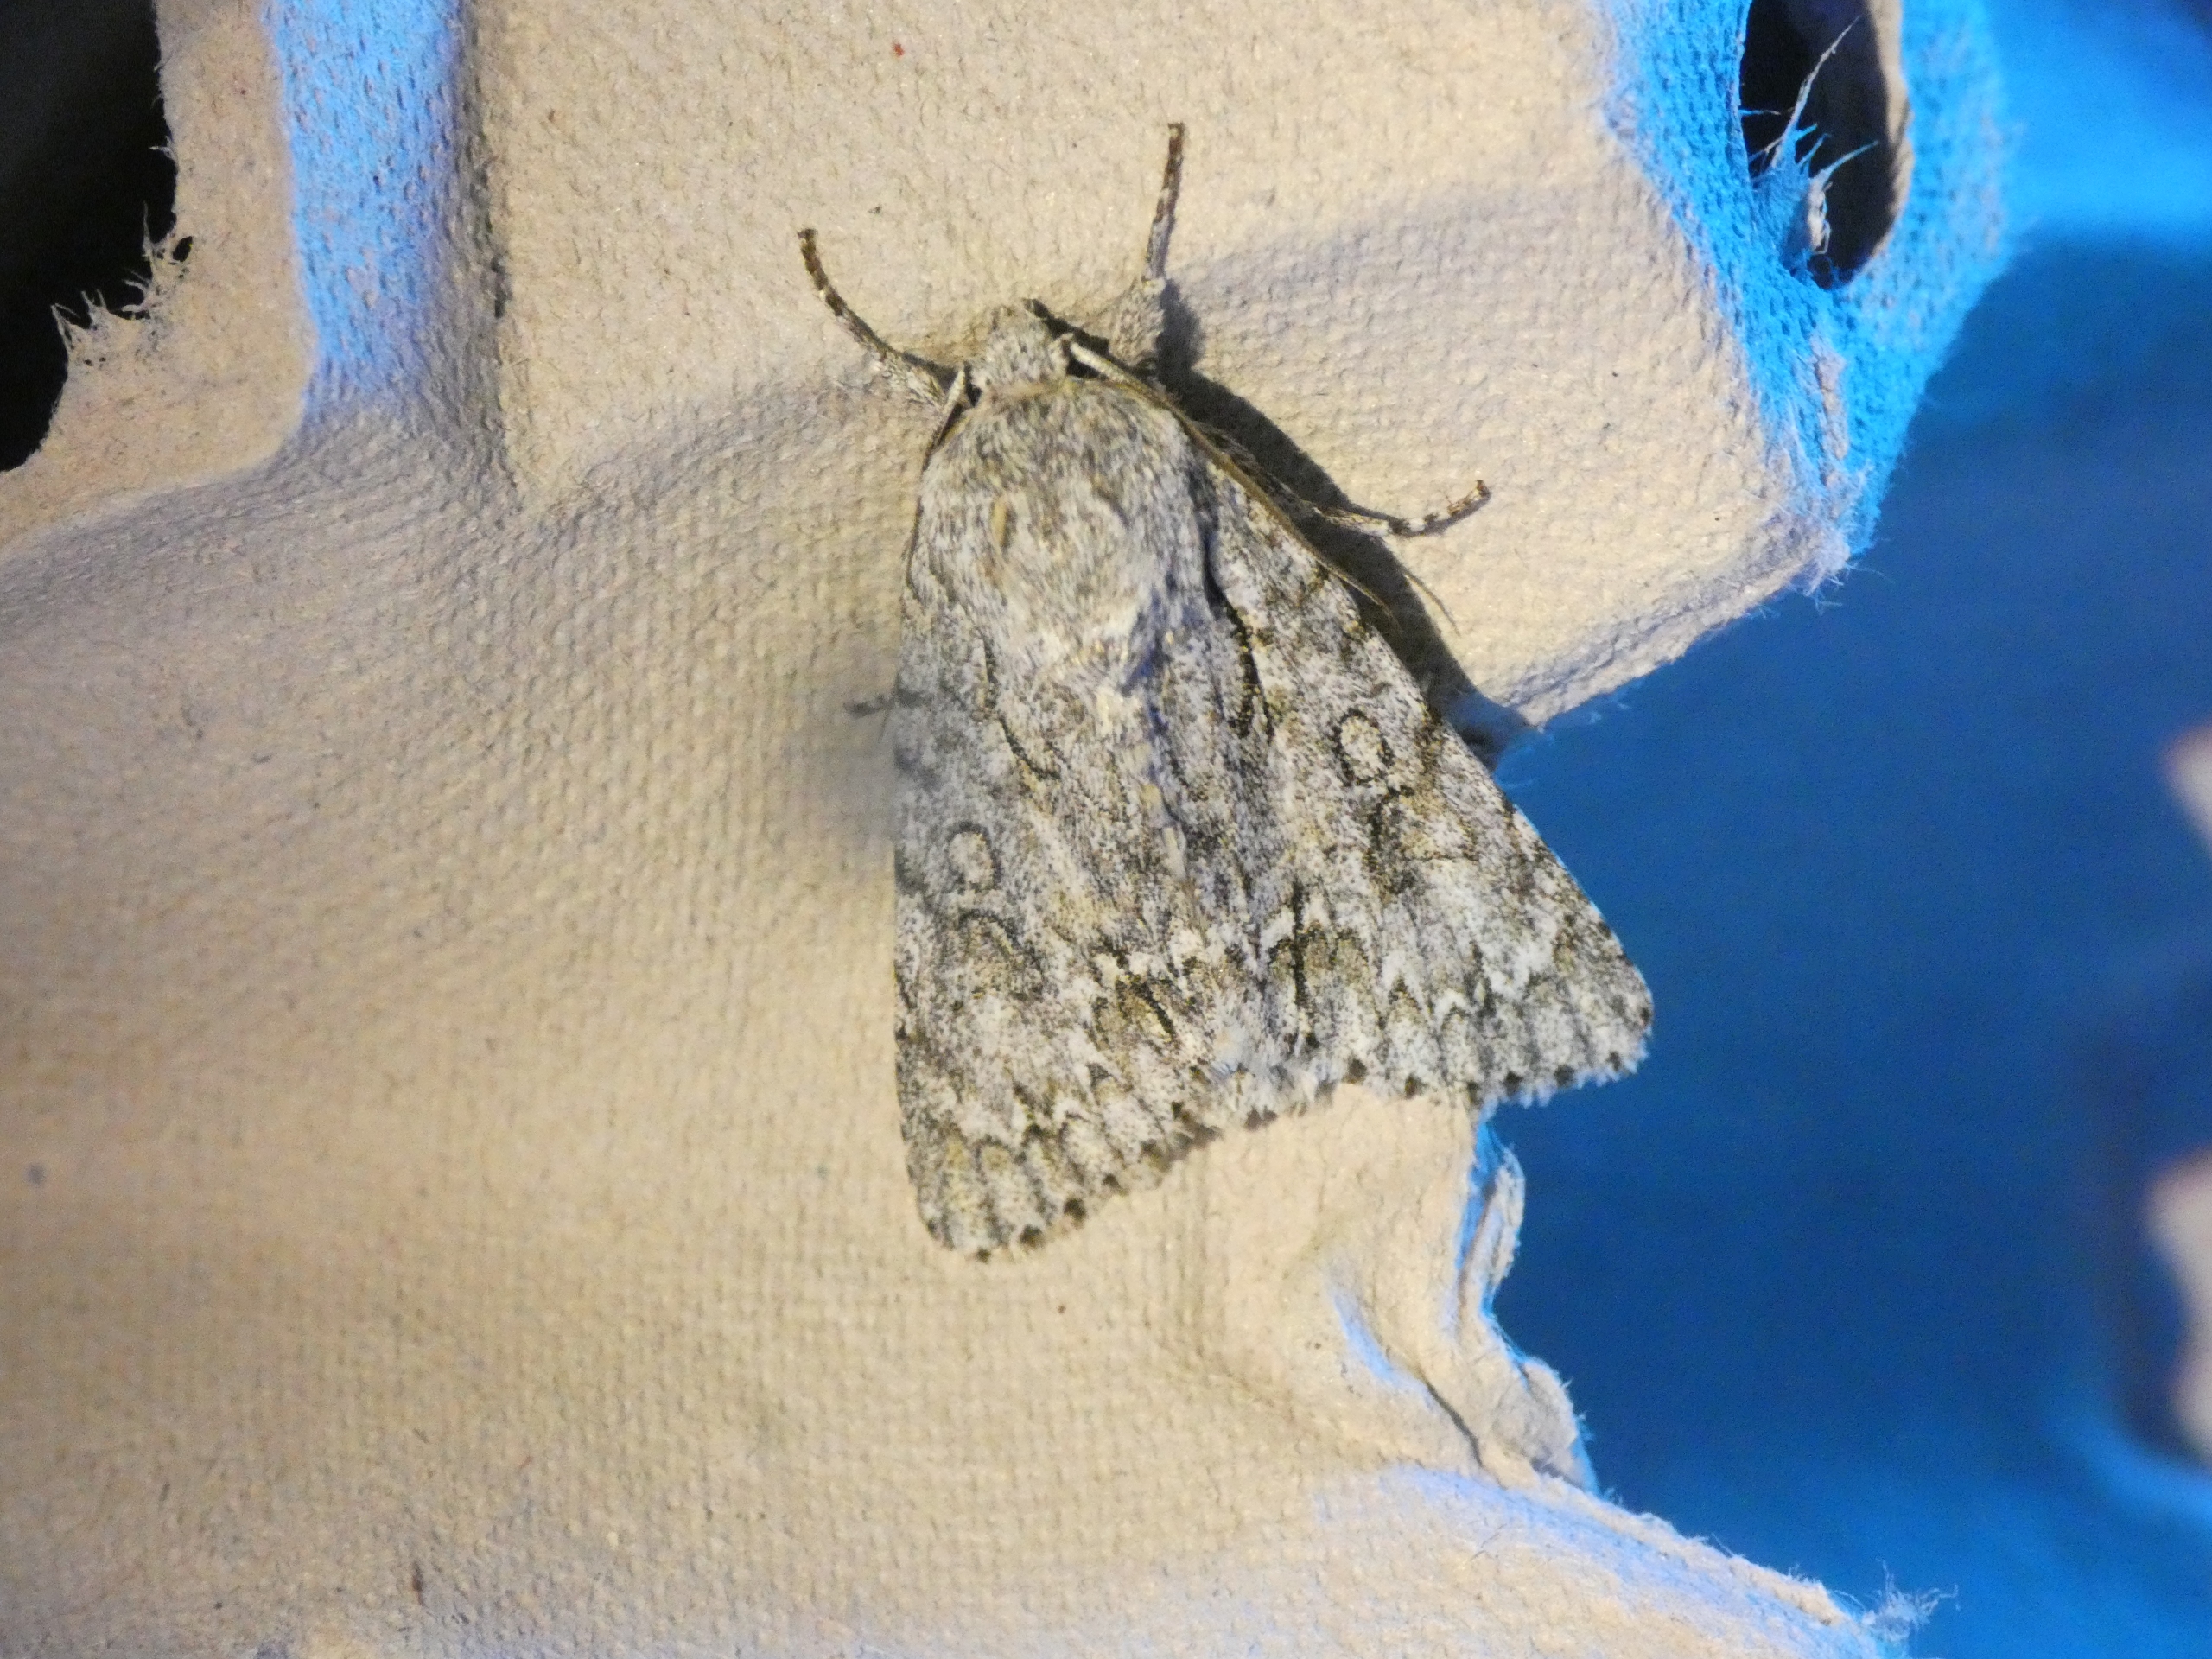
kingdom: Animalia
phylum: Arthropoda
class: Insecta
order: Lepidoptera
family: Noctuidae
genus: Acronicta
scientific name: Acronicta aceris
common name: Ahornugle
